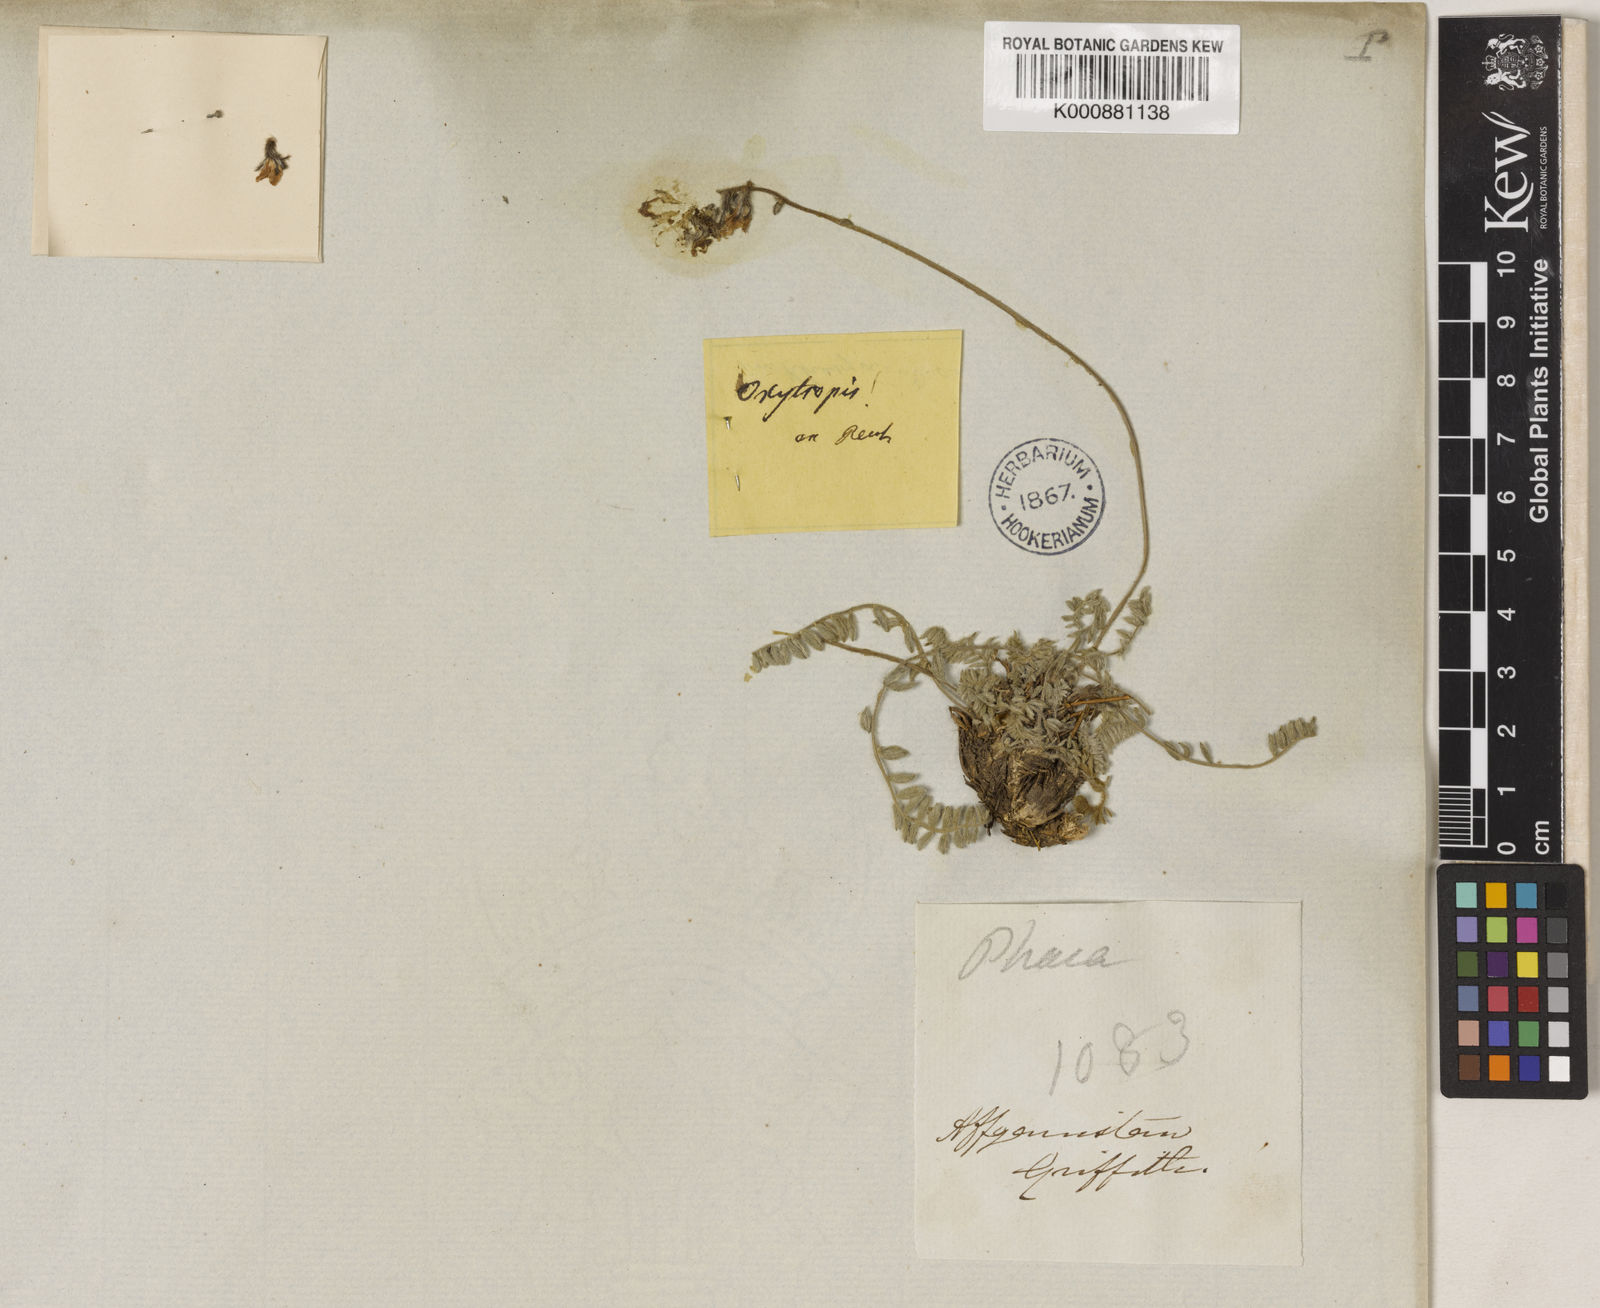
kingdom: Plantae
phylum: Tracheophyta
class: Magnoliopsida
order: Fabales
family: Fabaceae
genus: Oxytropis
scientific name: Oxytropis griffithii
